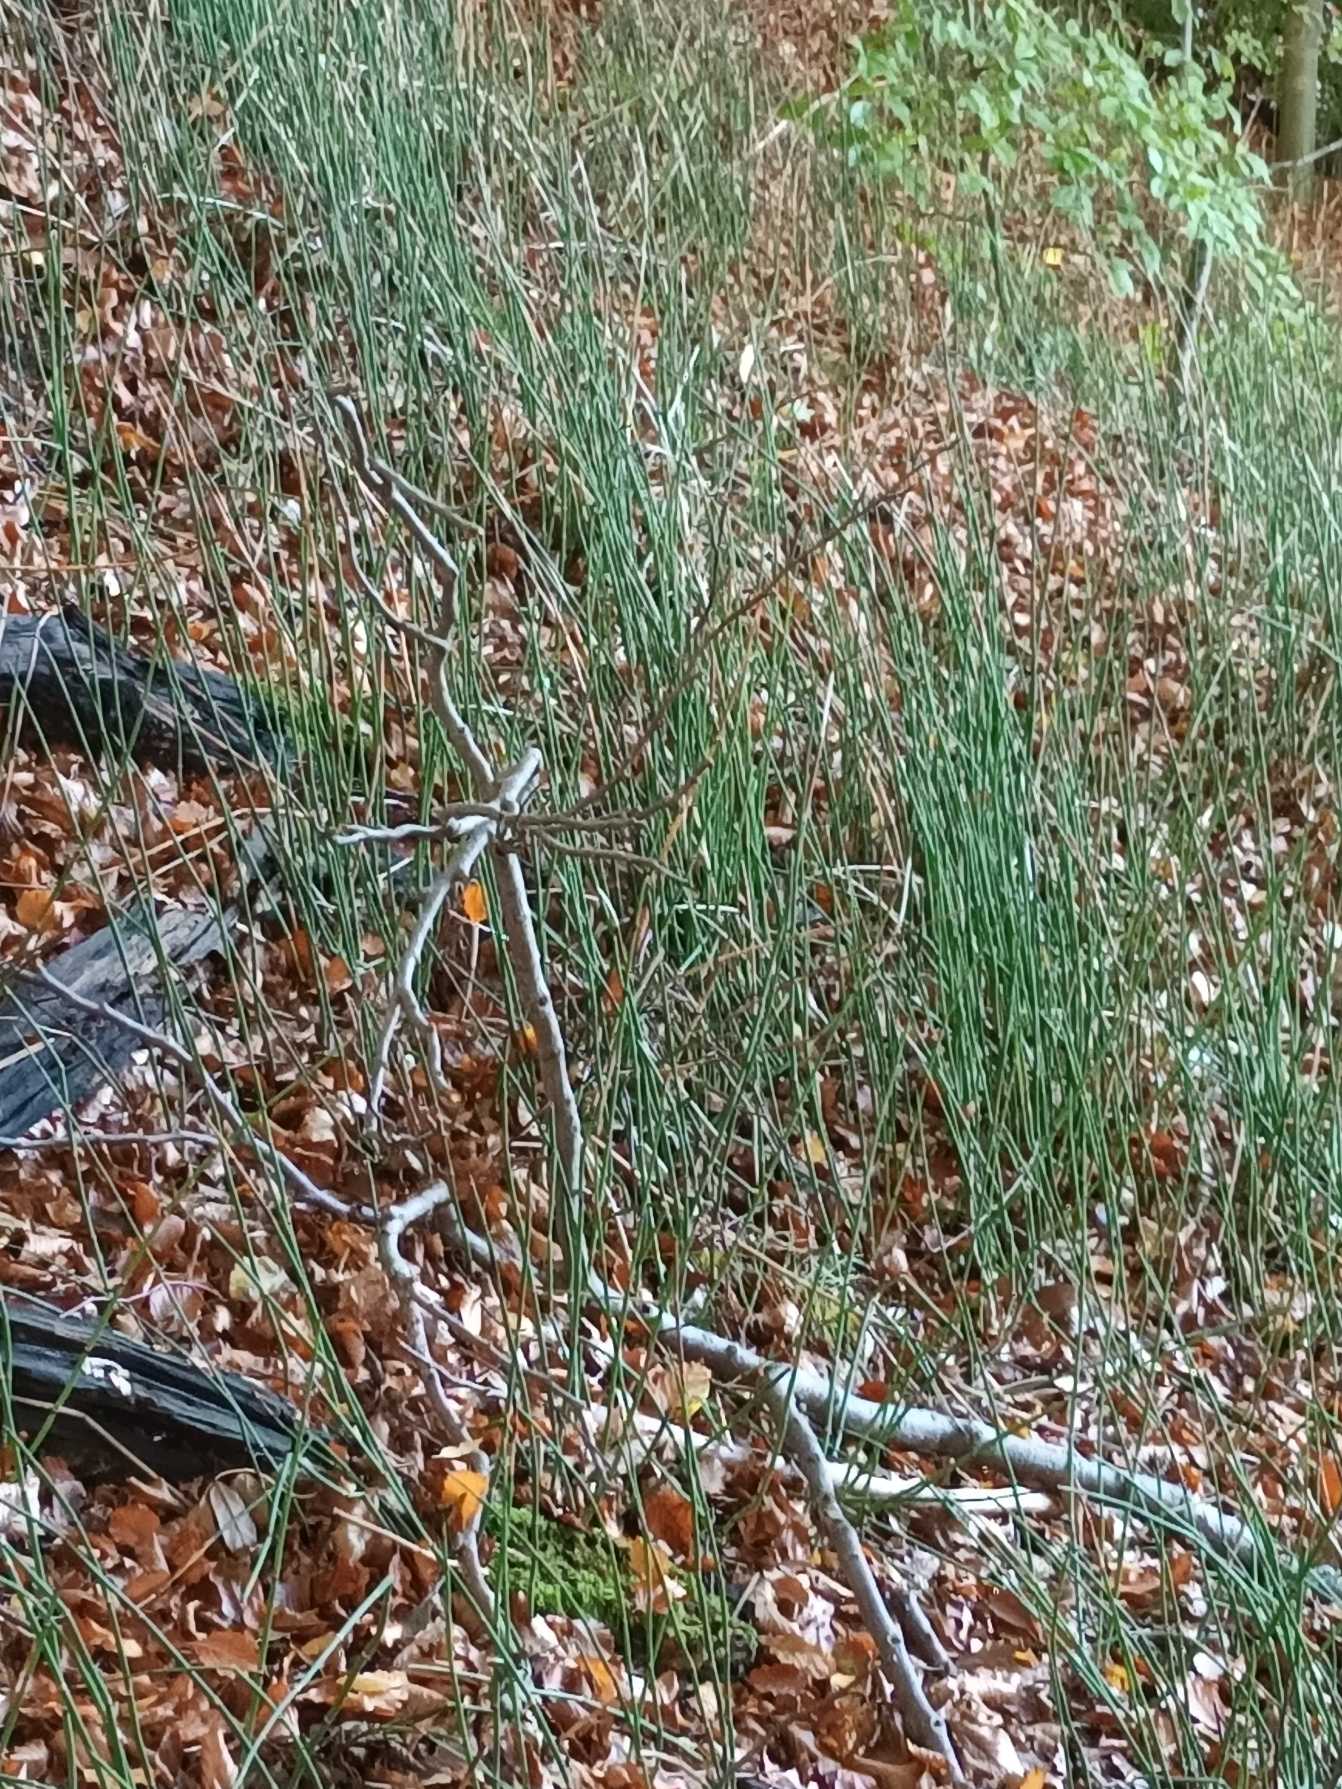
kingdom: Plantae
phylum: Tracheophyta
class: Polypodiopsida
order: Equisetales
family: Equisetaceae
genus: Equisetum
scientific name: Equisetum hyemale
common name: Skavgræs
